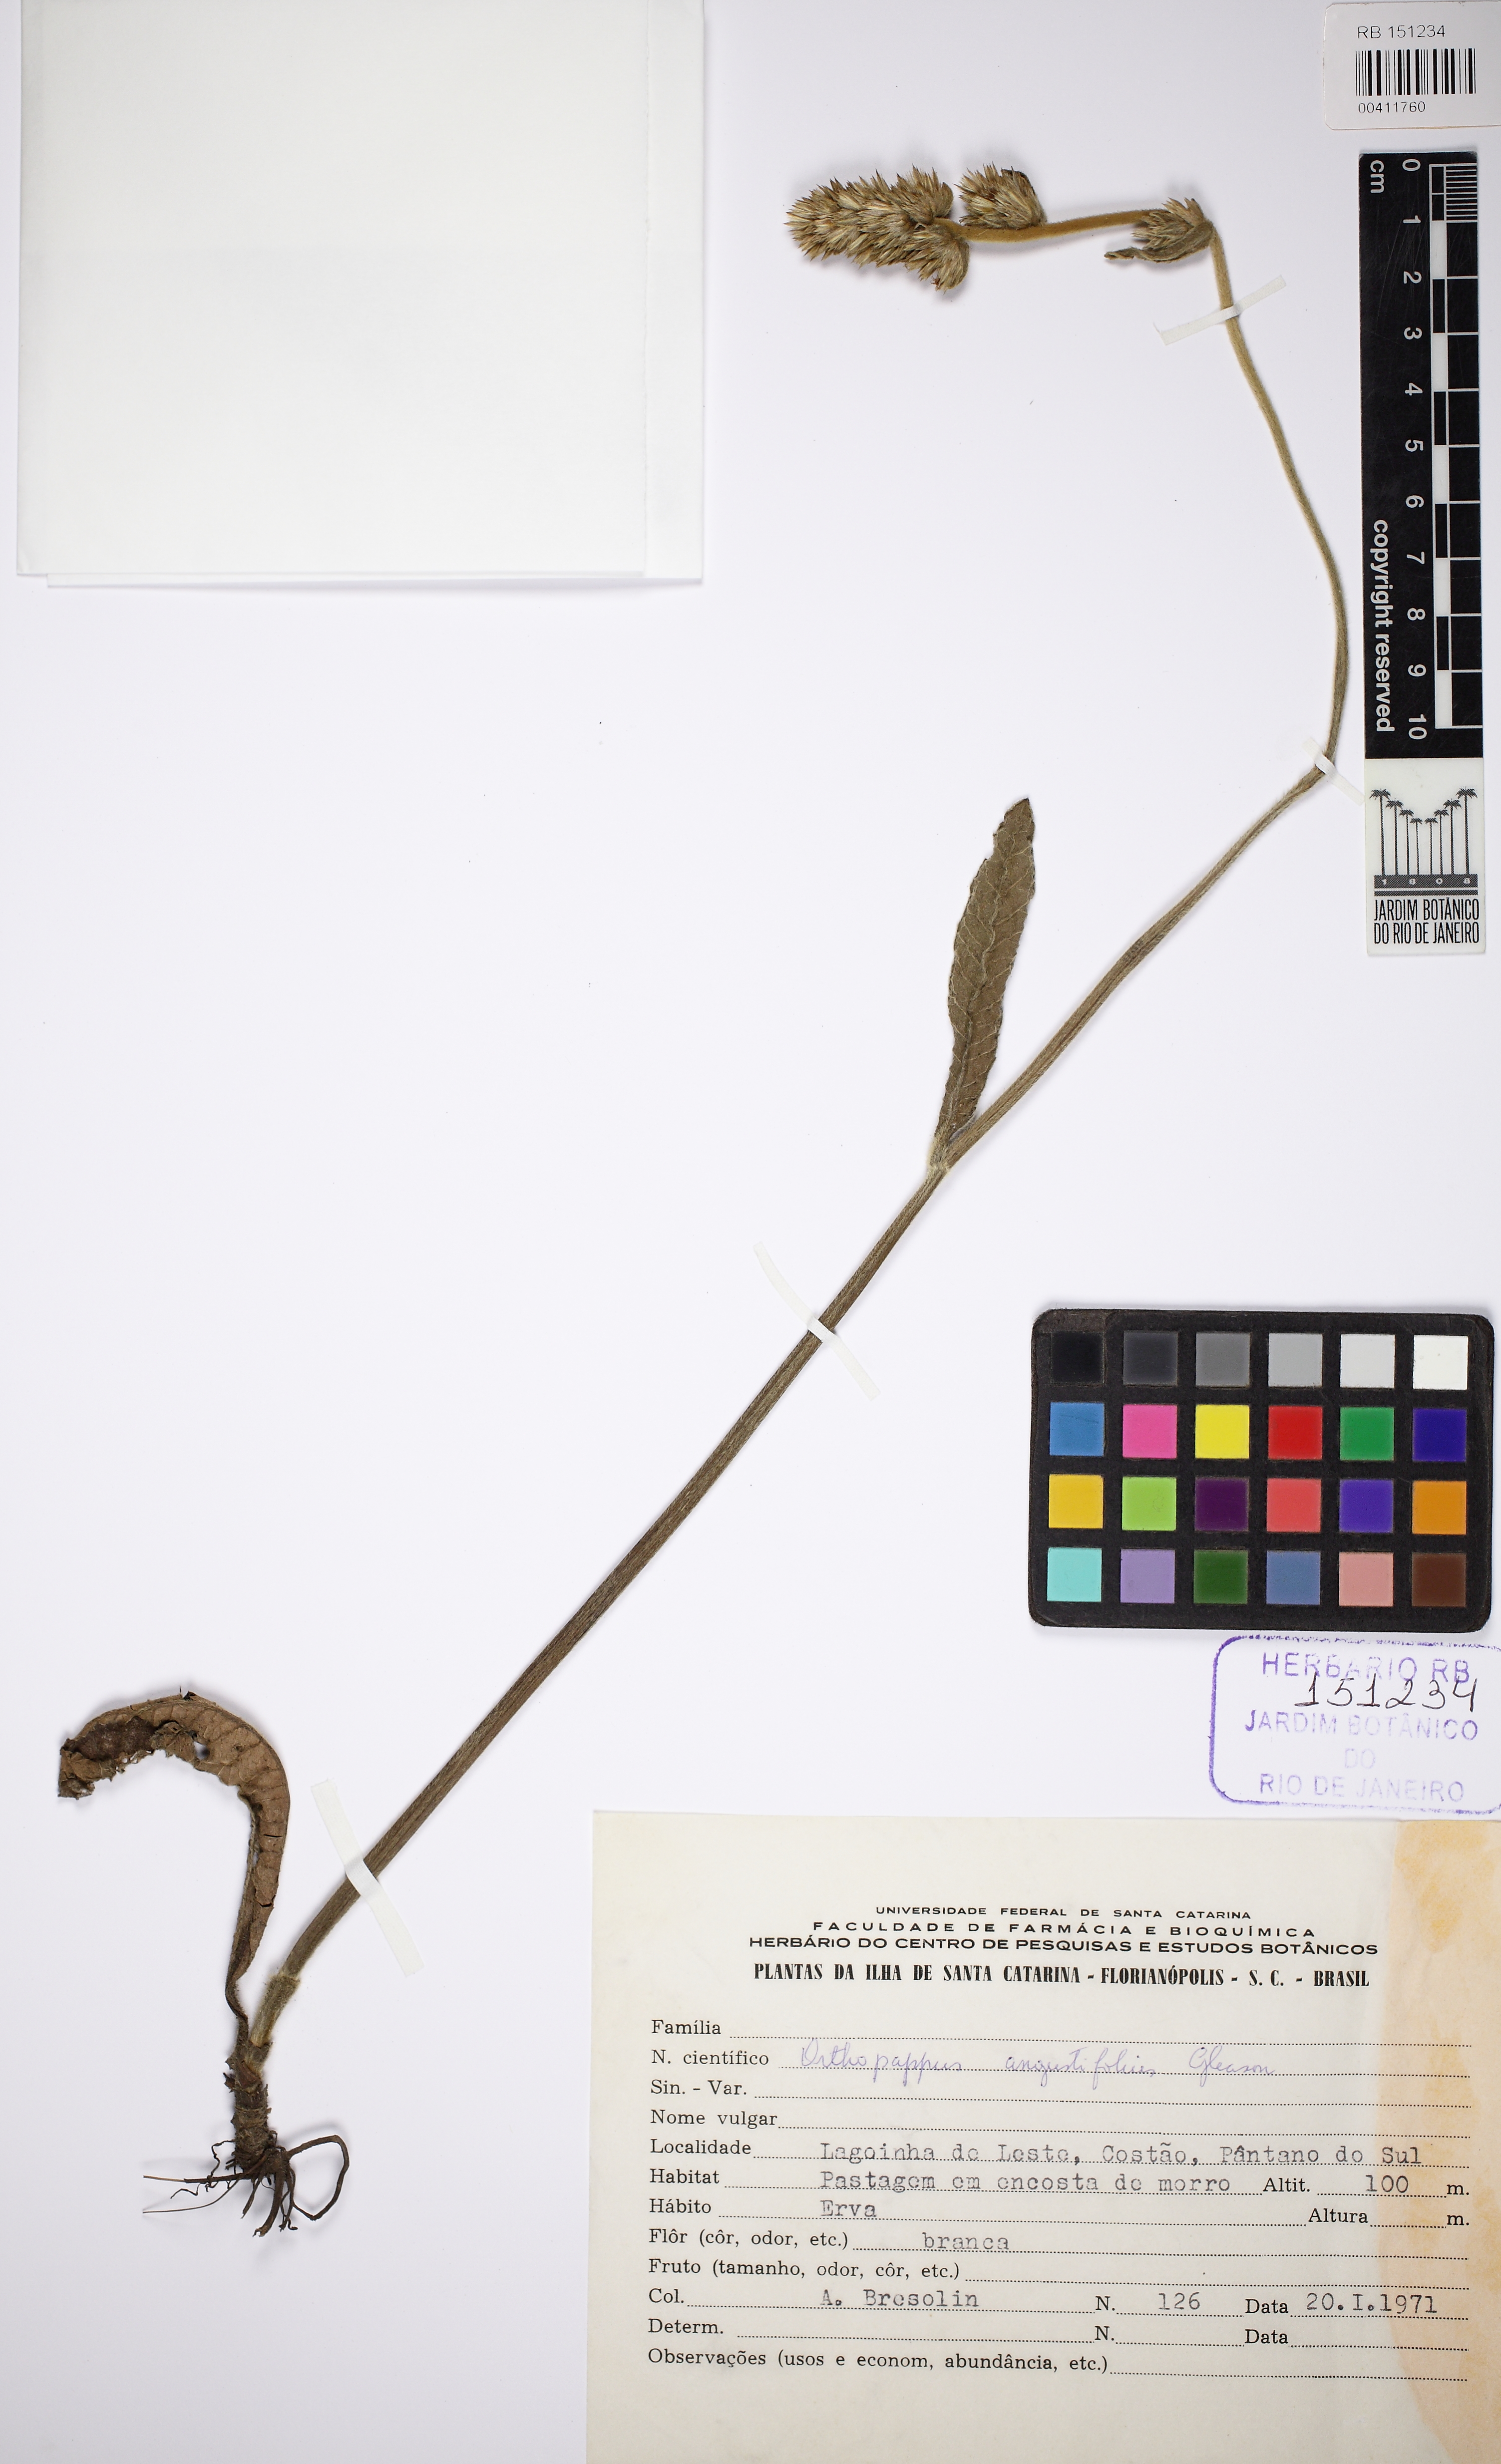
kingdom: Plantae
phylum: Tracheophyta
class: Magnoliopsida
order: Asterales
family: Asteraceae
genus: Orthopappus
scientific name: Orthopappus angustifolius
